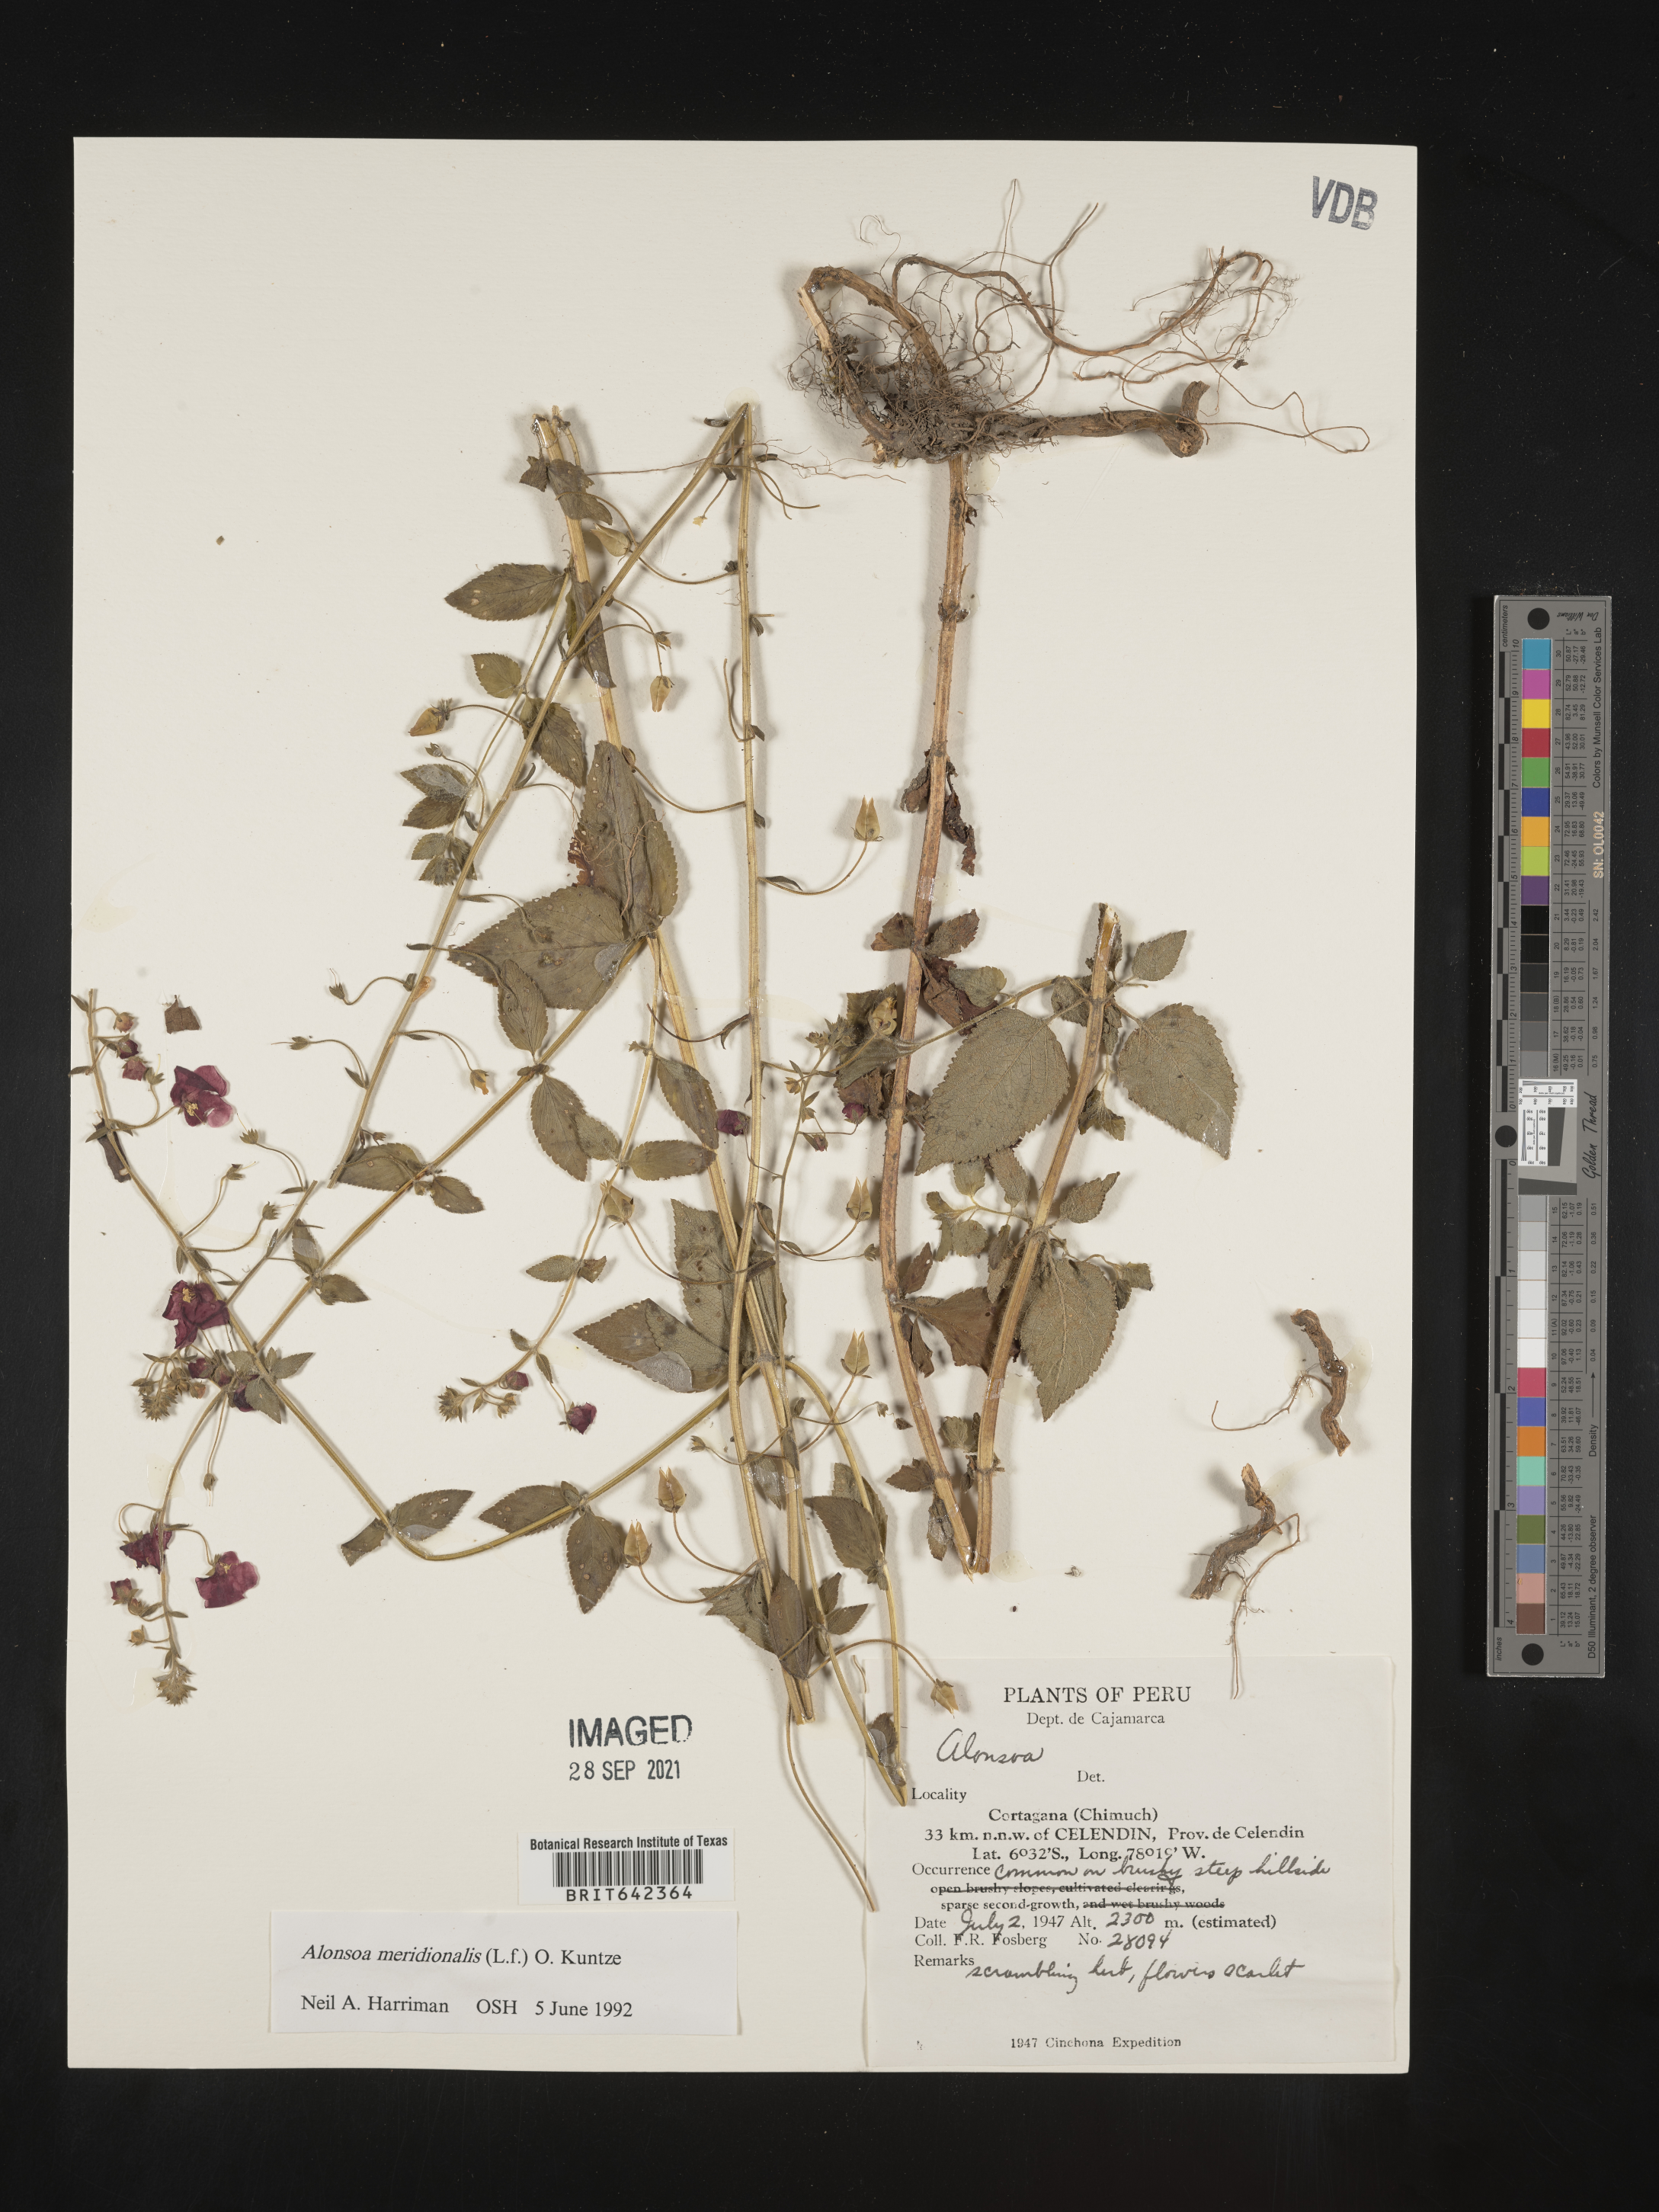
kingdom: Plantae
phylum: Tracheophyta
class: Magnoliopsida
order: Lamiales
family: Scrophulariaceae
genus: Alonsoa
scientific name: Alonsoa
